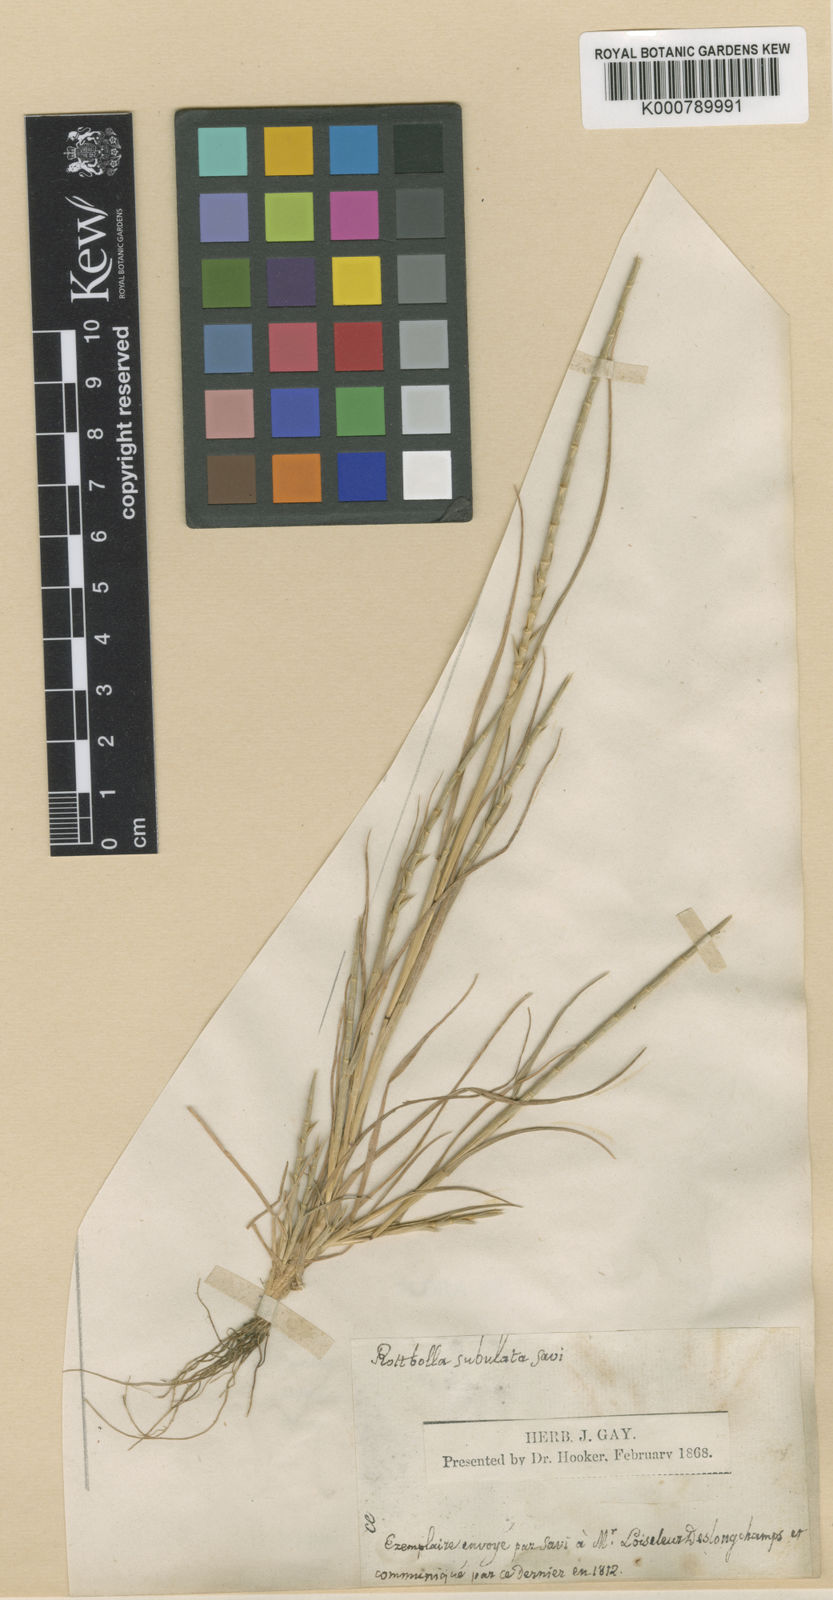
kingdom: Plantae
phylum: Tracheophyta
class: Liliopsida
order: Poales
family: Poaceae
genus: Parapholis
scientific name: Parapholis cylindrica
